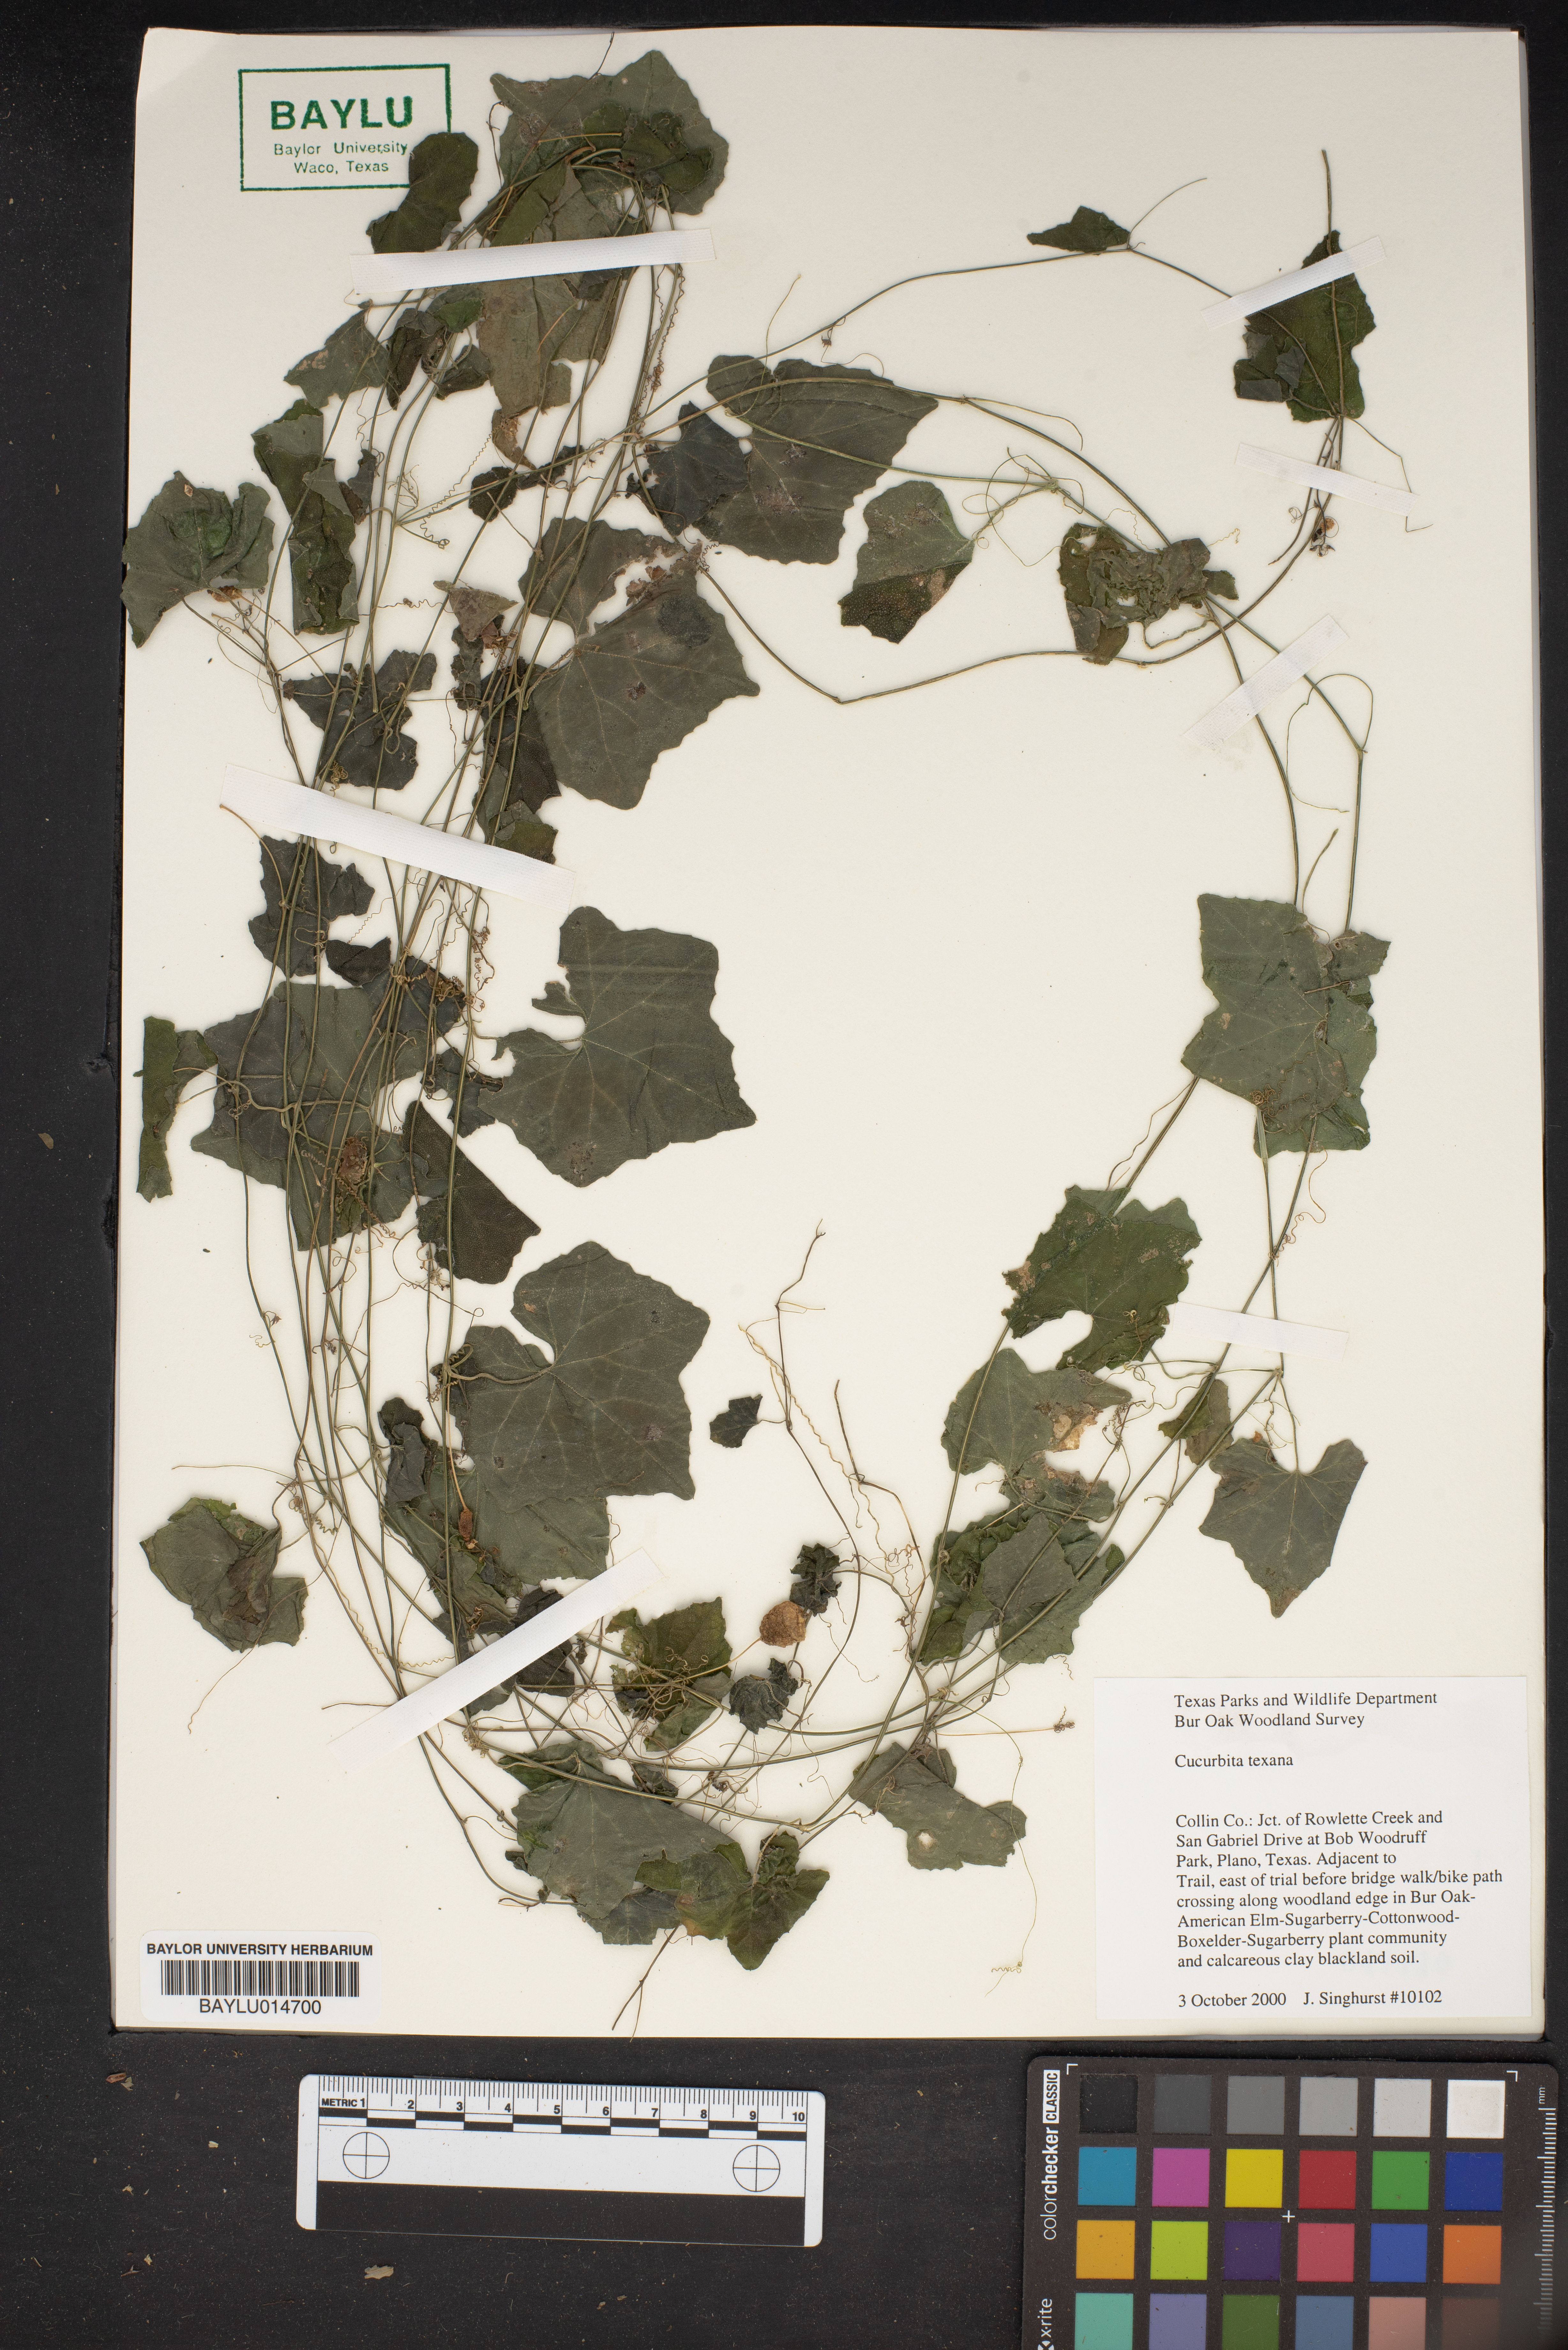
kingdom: Plantae
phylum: Tracheophyta
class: Magnoliopsida
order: Cucurbitales
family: Cucurbitaceae
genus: Cucurbita
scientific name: Cucurbita melopepo
